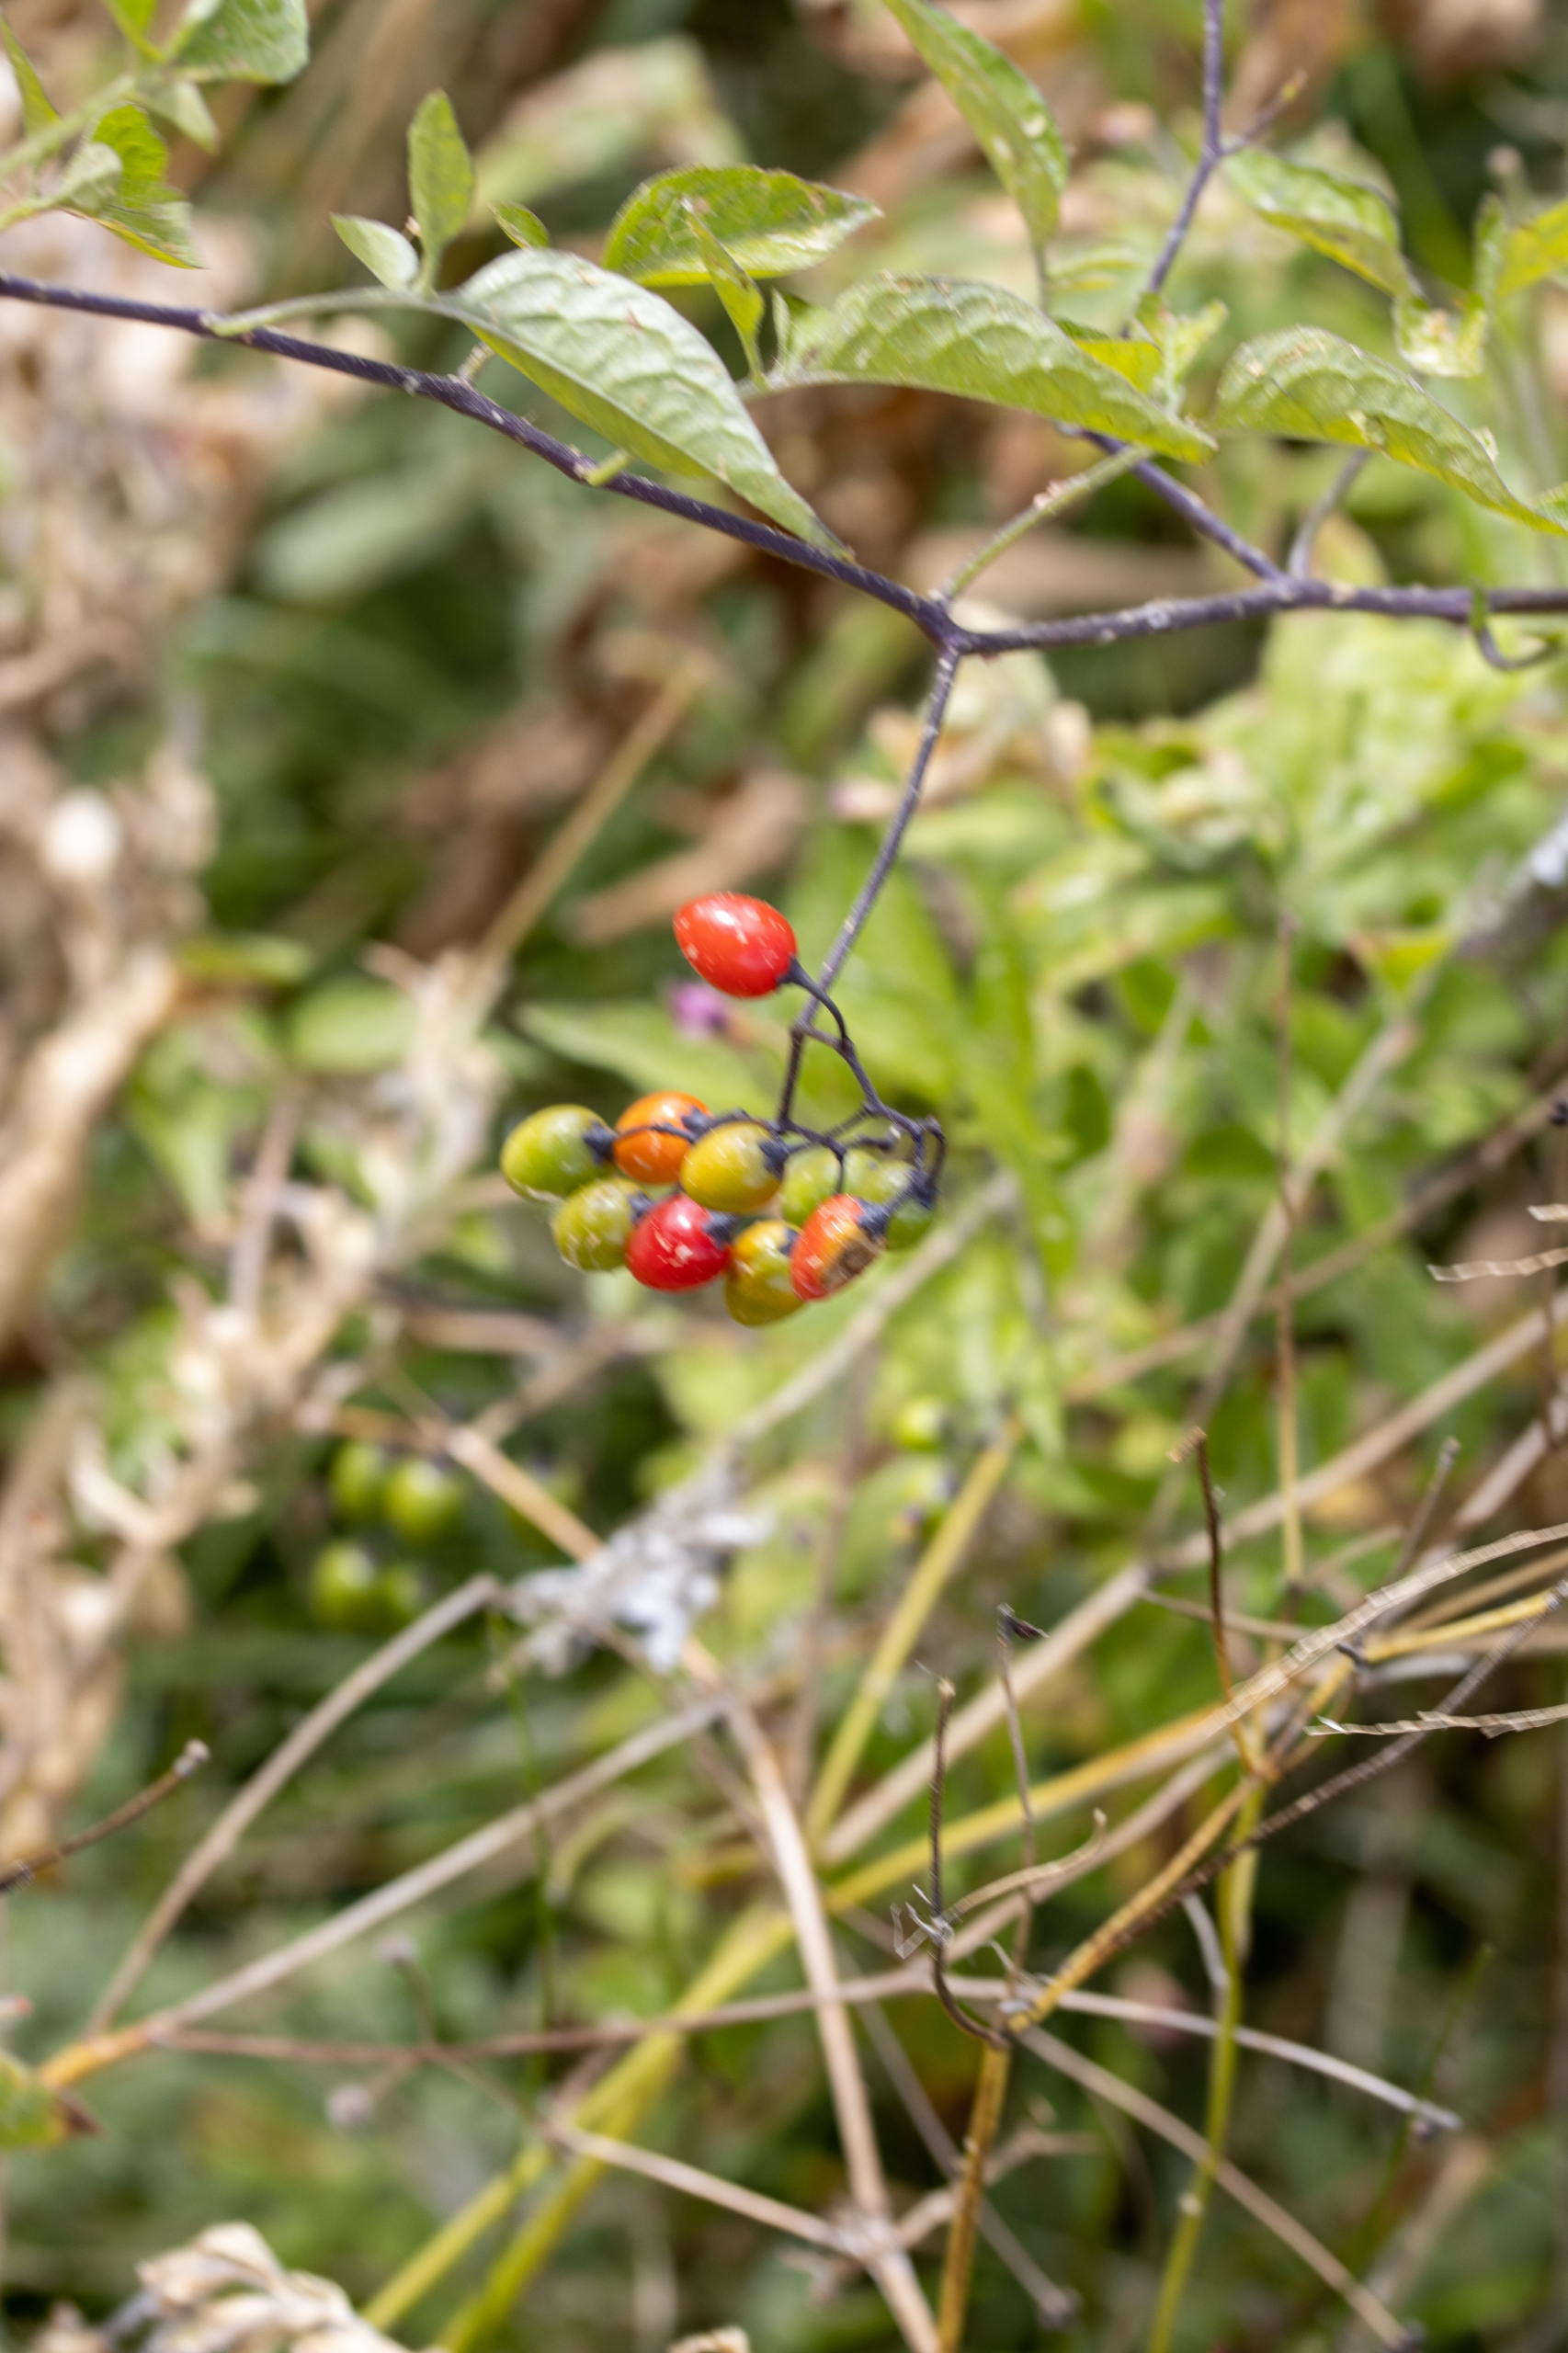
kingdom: Plantae
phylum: Tracheophyta
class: Magnoliopsida
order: Solanales
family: Solanaceae
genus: Solanum
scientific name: Solanum dulcamara
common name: Bittersød natskygge
